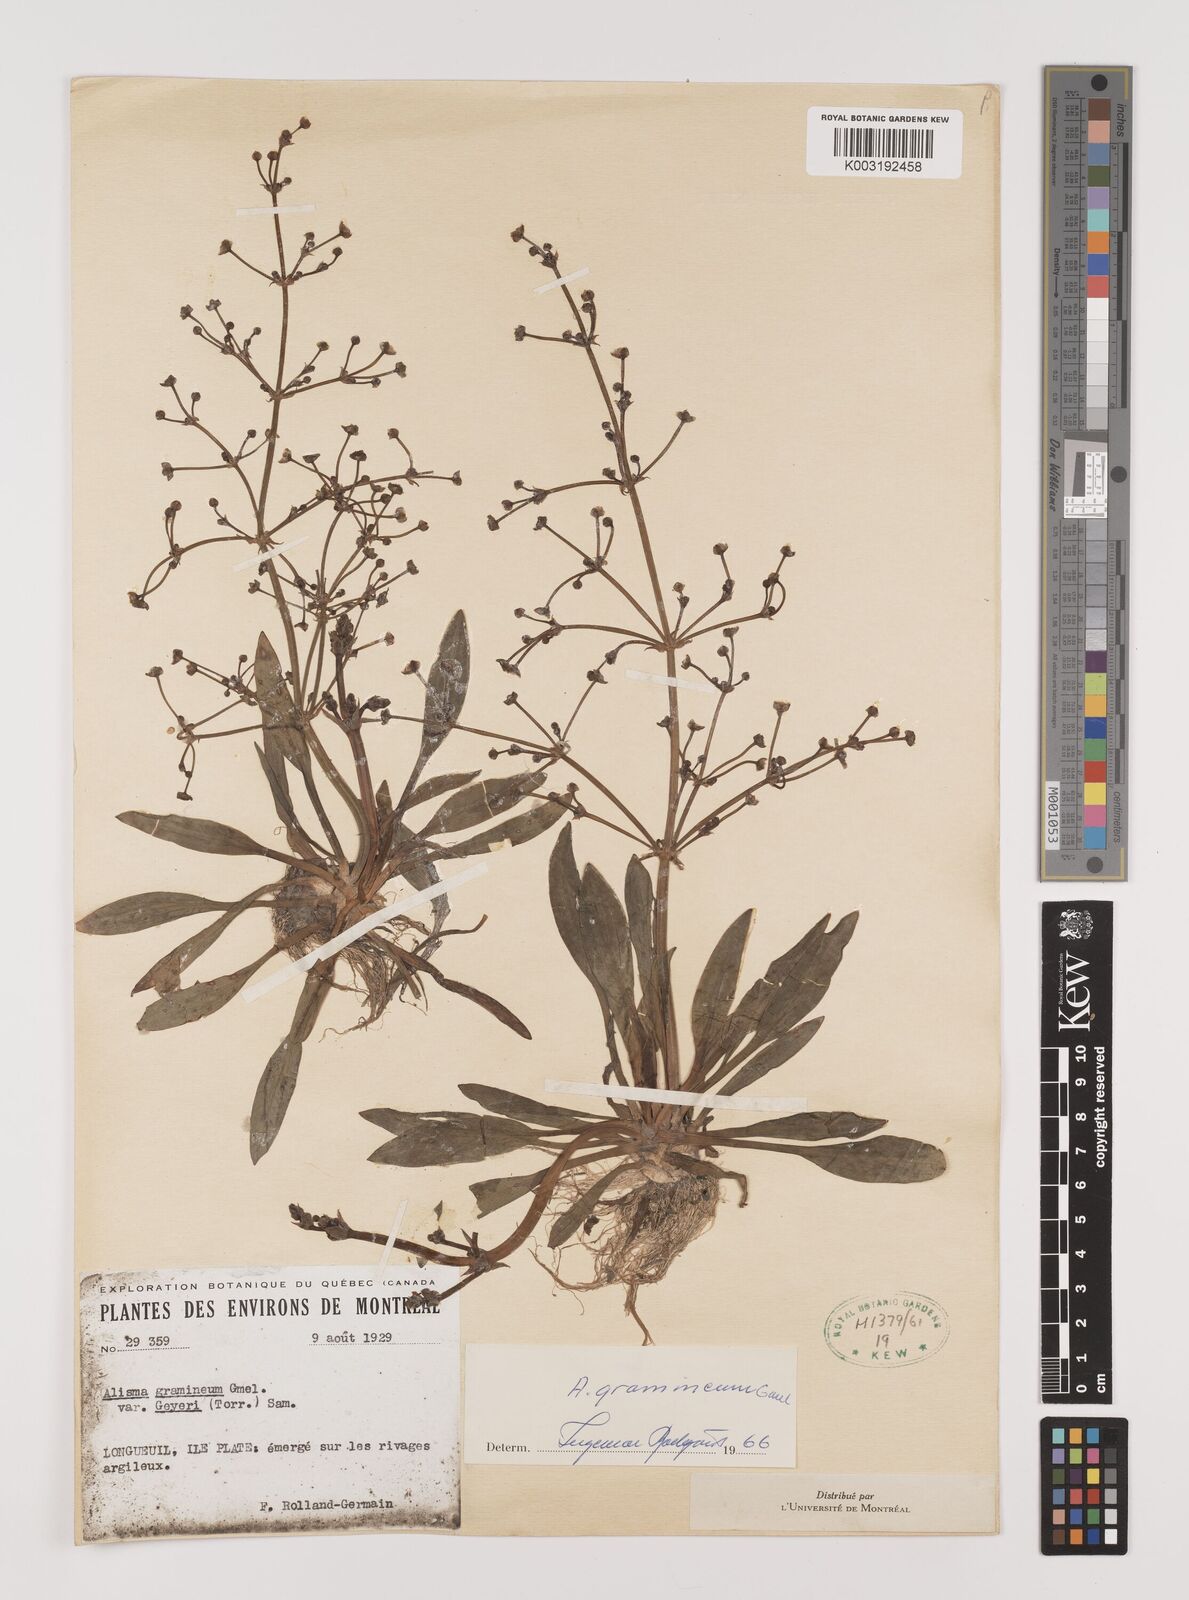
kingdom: Plantae
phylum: Tracheophyta
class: Liliopsida
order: Alismatales
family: Alismataceae
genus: Alisma
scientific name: Alisma gramineum
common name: Ribbon-leaved water-plantain
